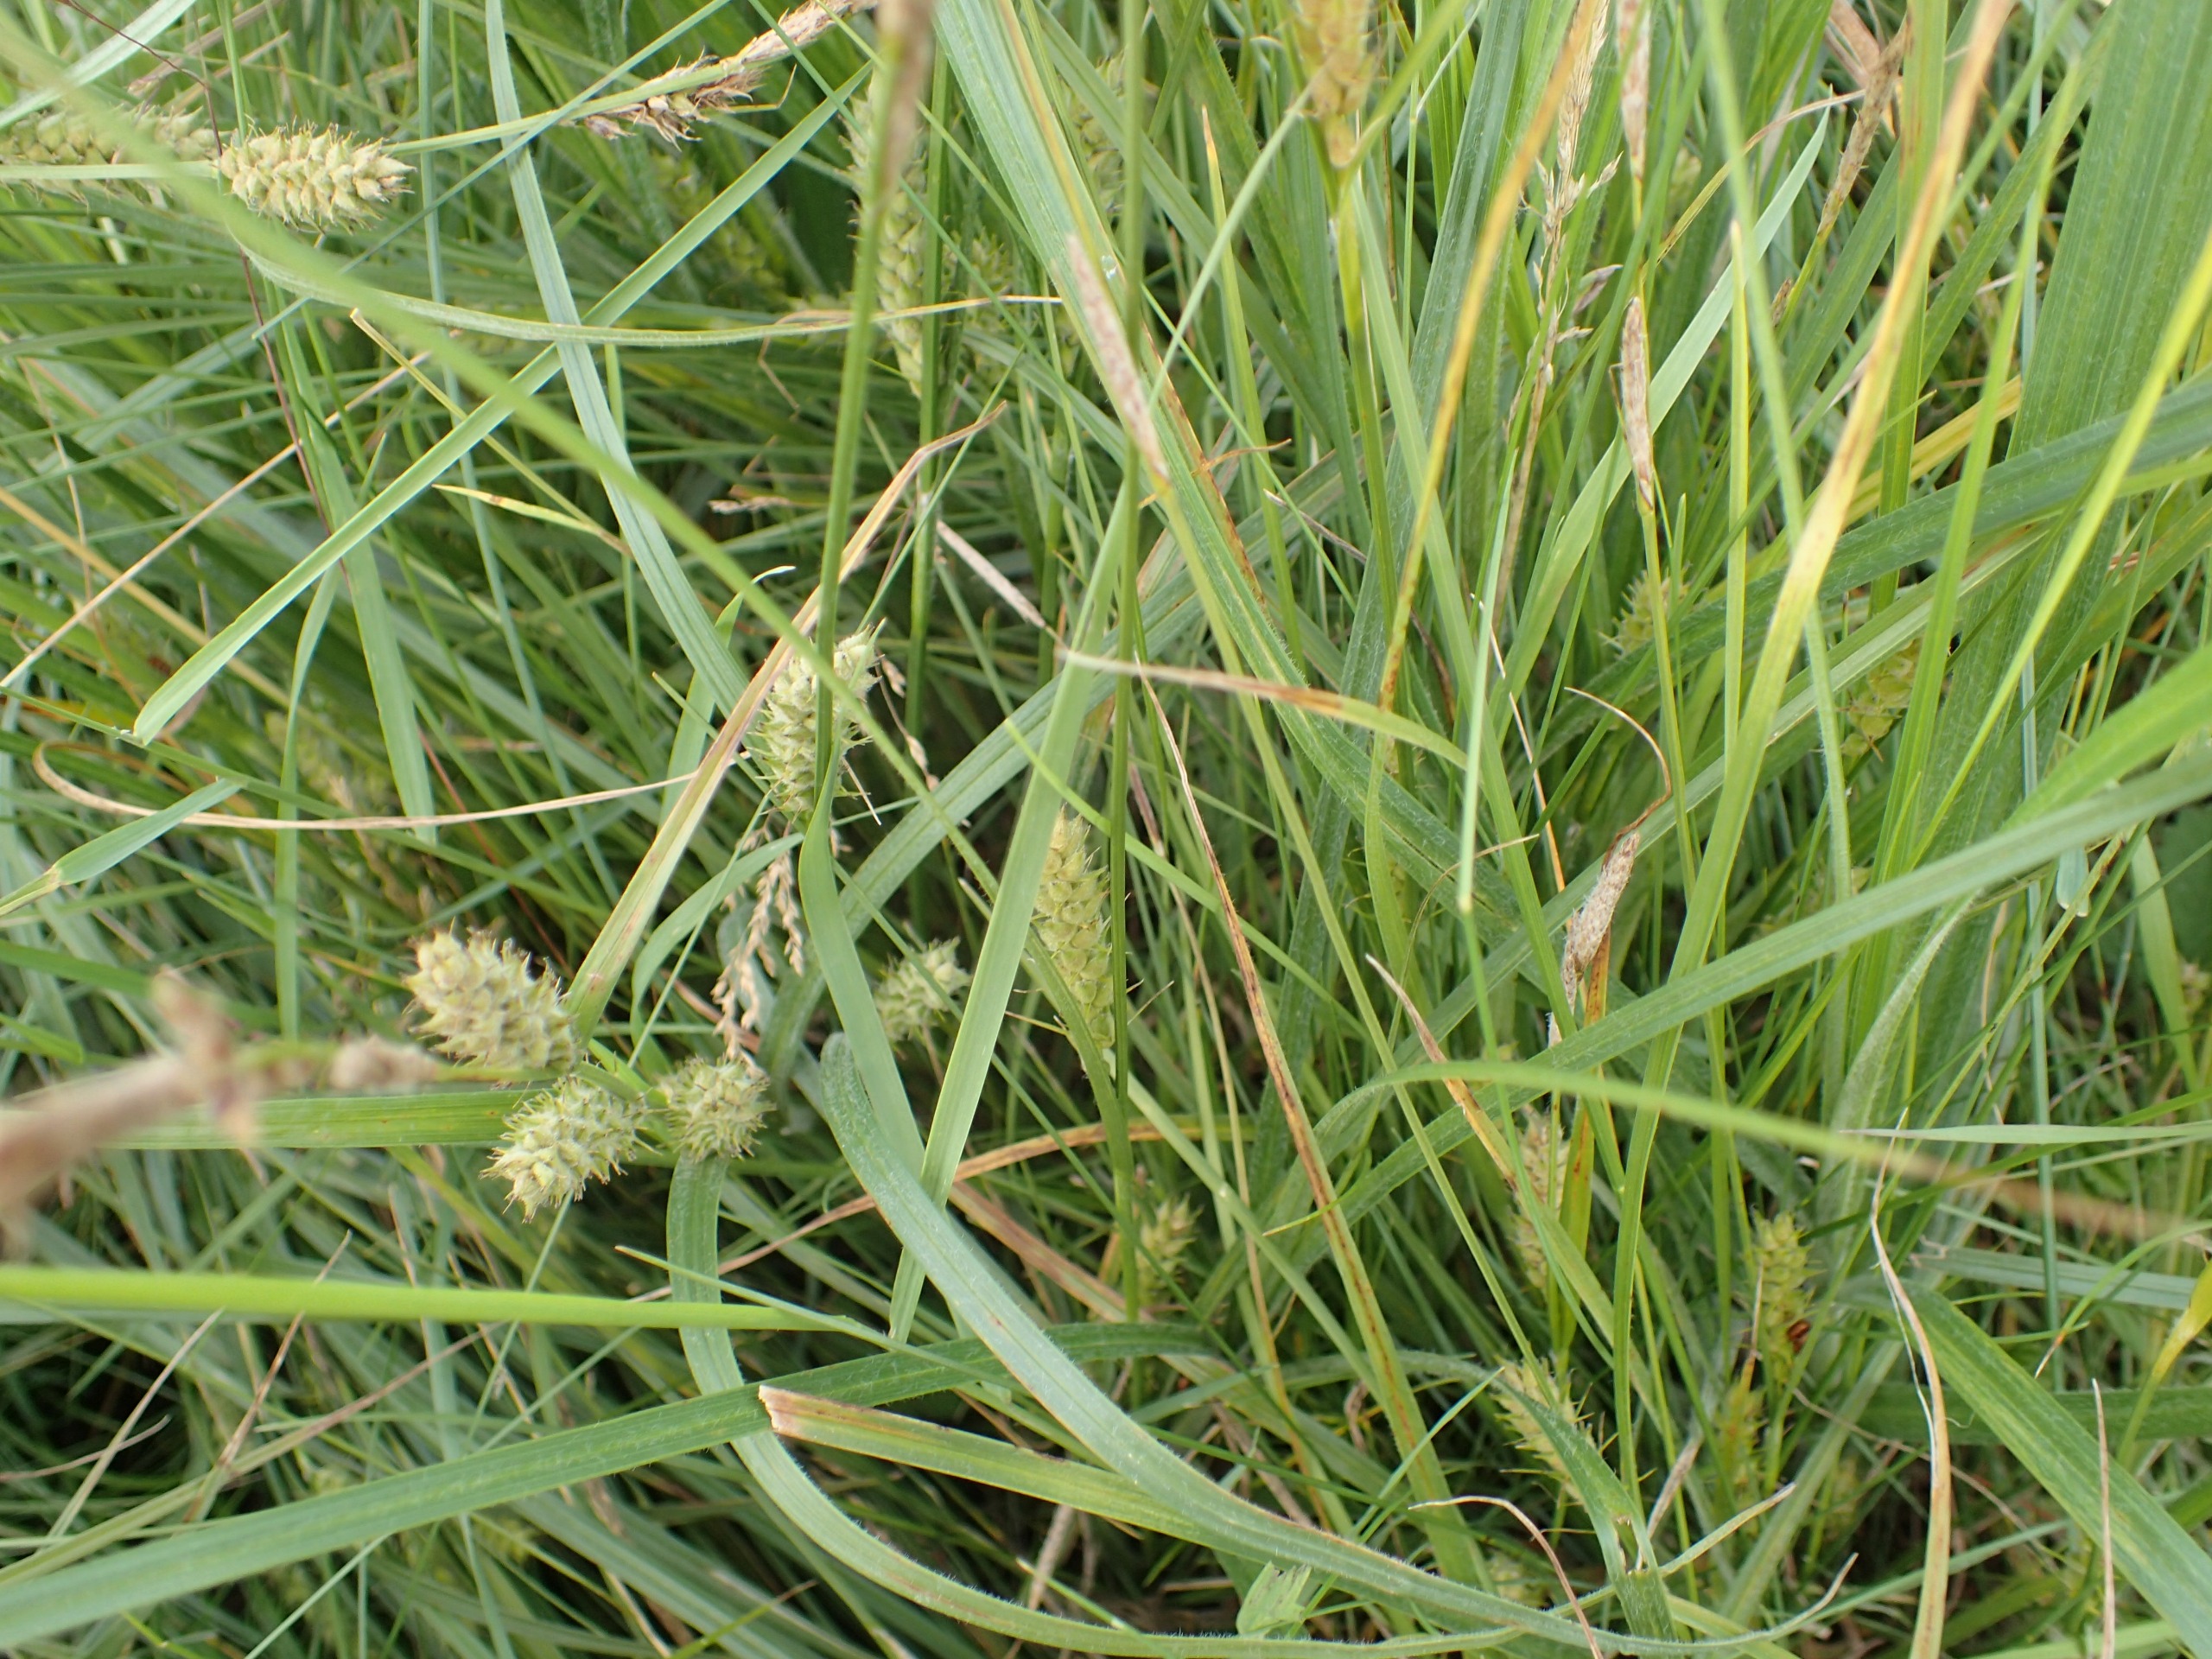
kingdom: Plantae
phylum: Tracheophyta
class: Liliopsida
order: Poales
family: Cyperaceae
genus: Carex
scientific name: Carex hirta
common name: Håret star
